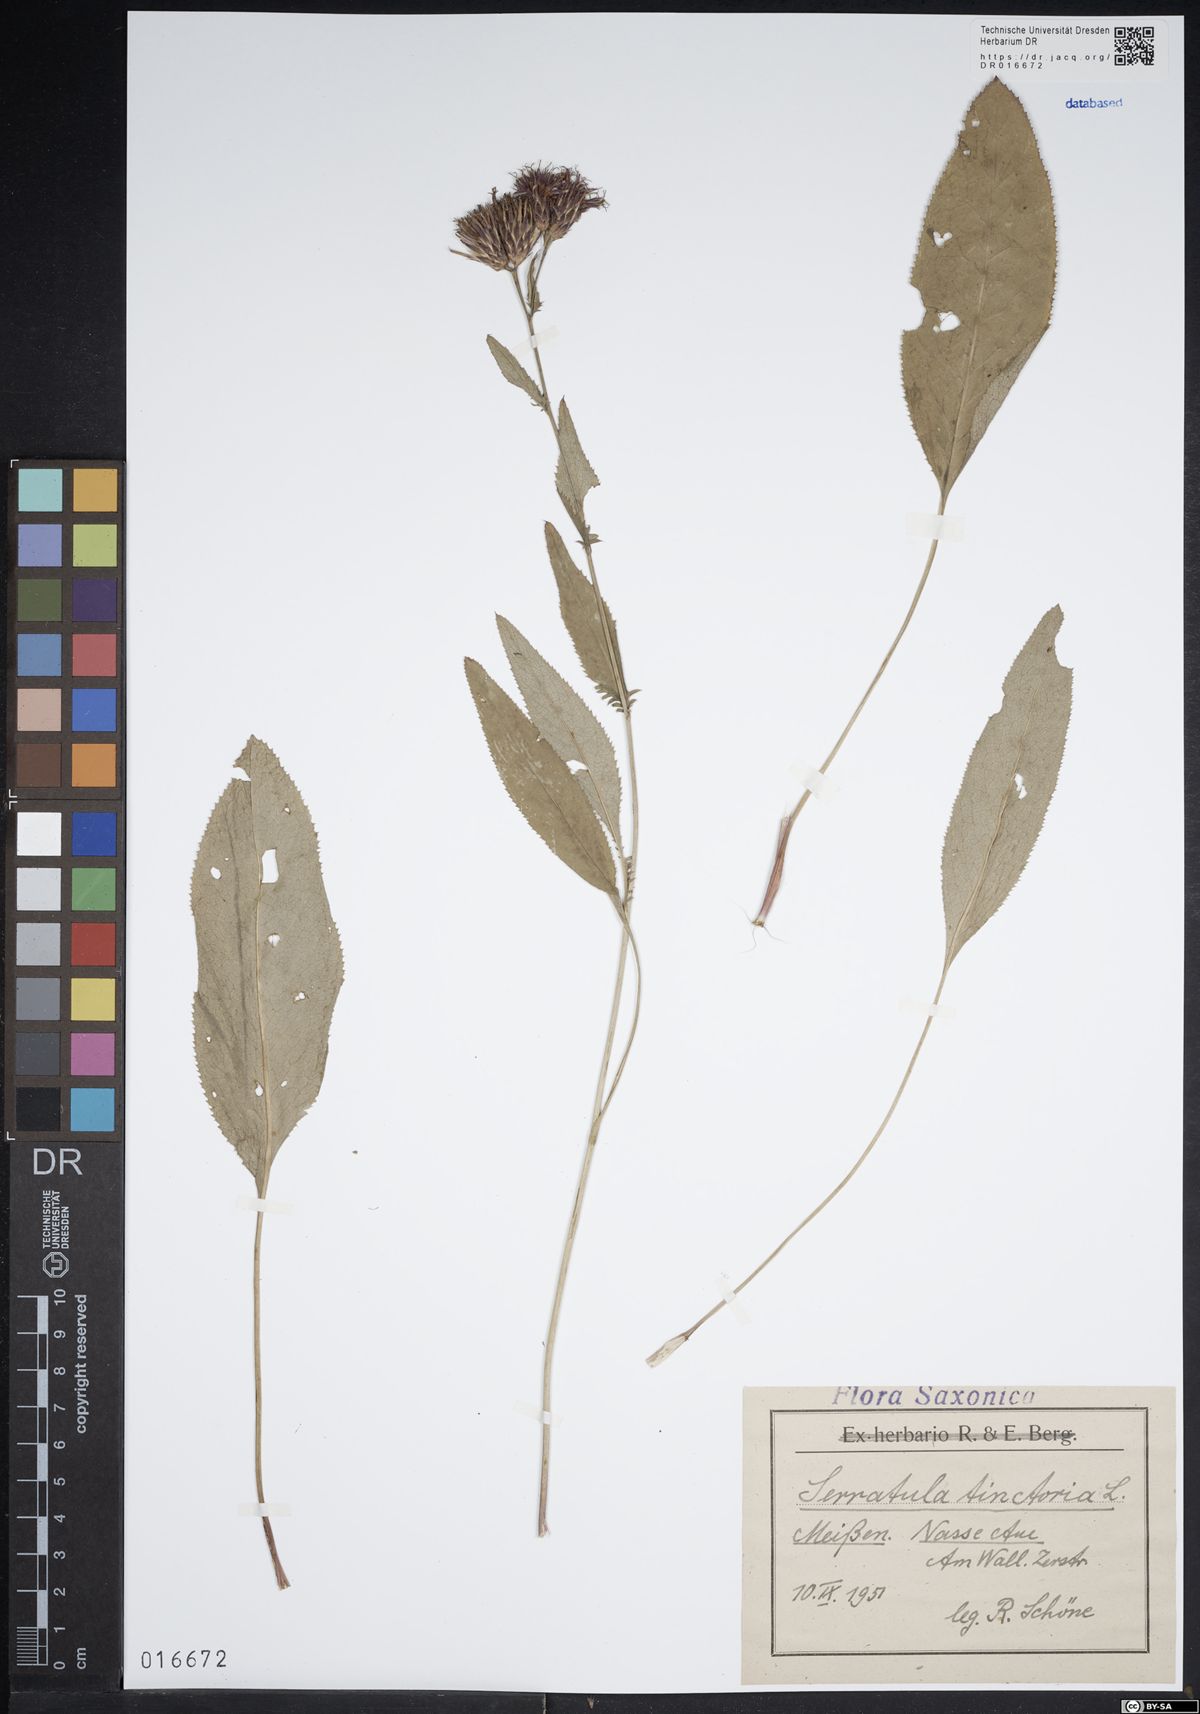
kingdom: Plantae
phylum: Tracheophyta
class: Magnoliopsida
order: Asterales
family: Asteraceae
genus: Serratula
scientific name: Serratula tinctoria
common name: Saw-wort
